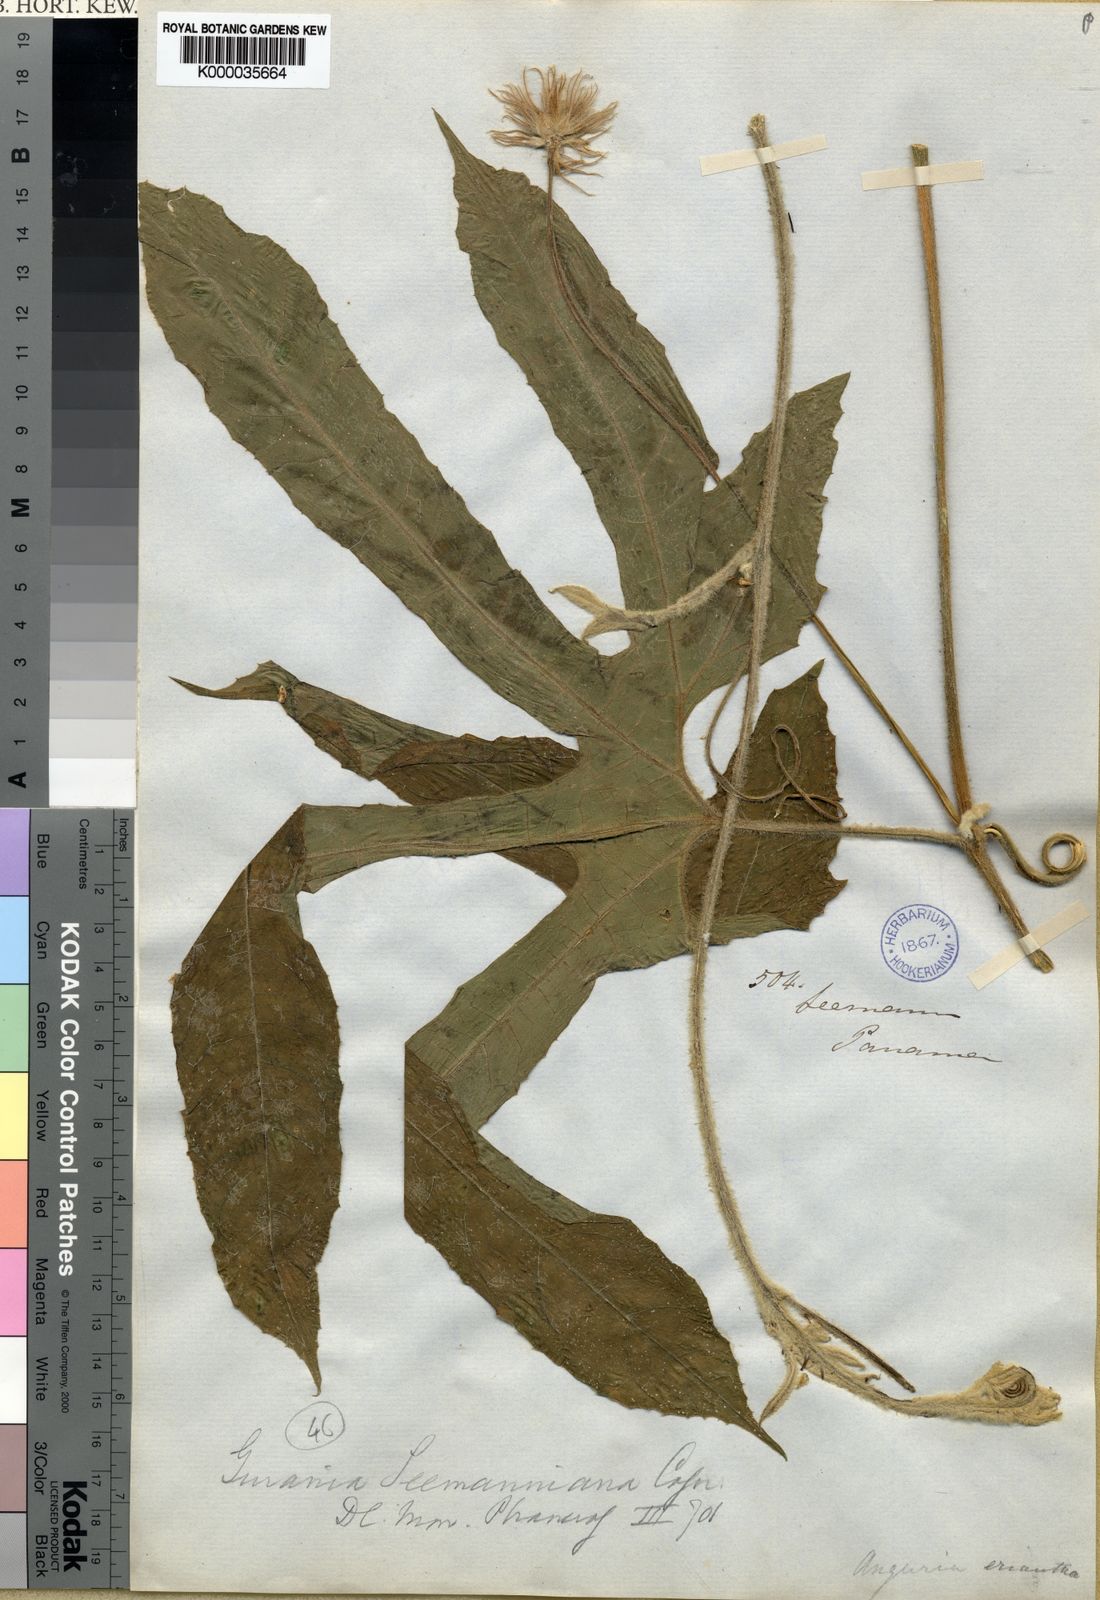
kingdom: Plantae
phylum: Tracheophyta
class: Magnoliopsida
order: Cucurbitales
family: Cucurbitaceae
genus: Gurania
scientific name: Gurania makoyana
